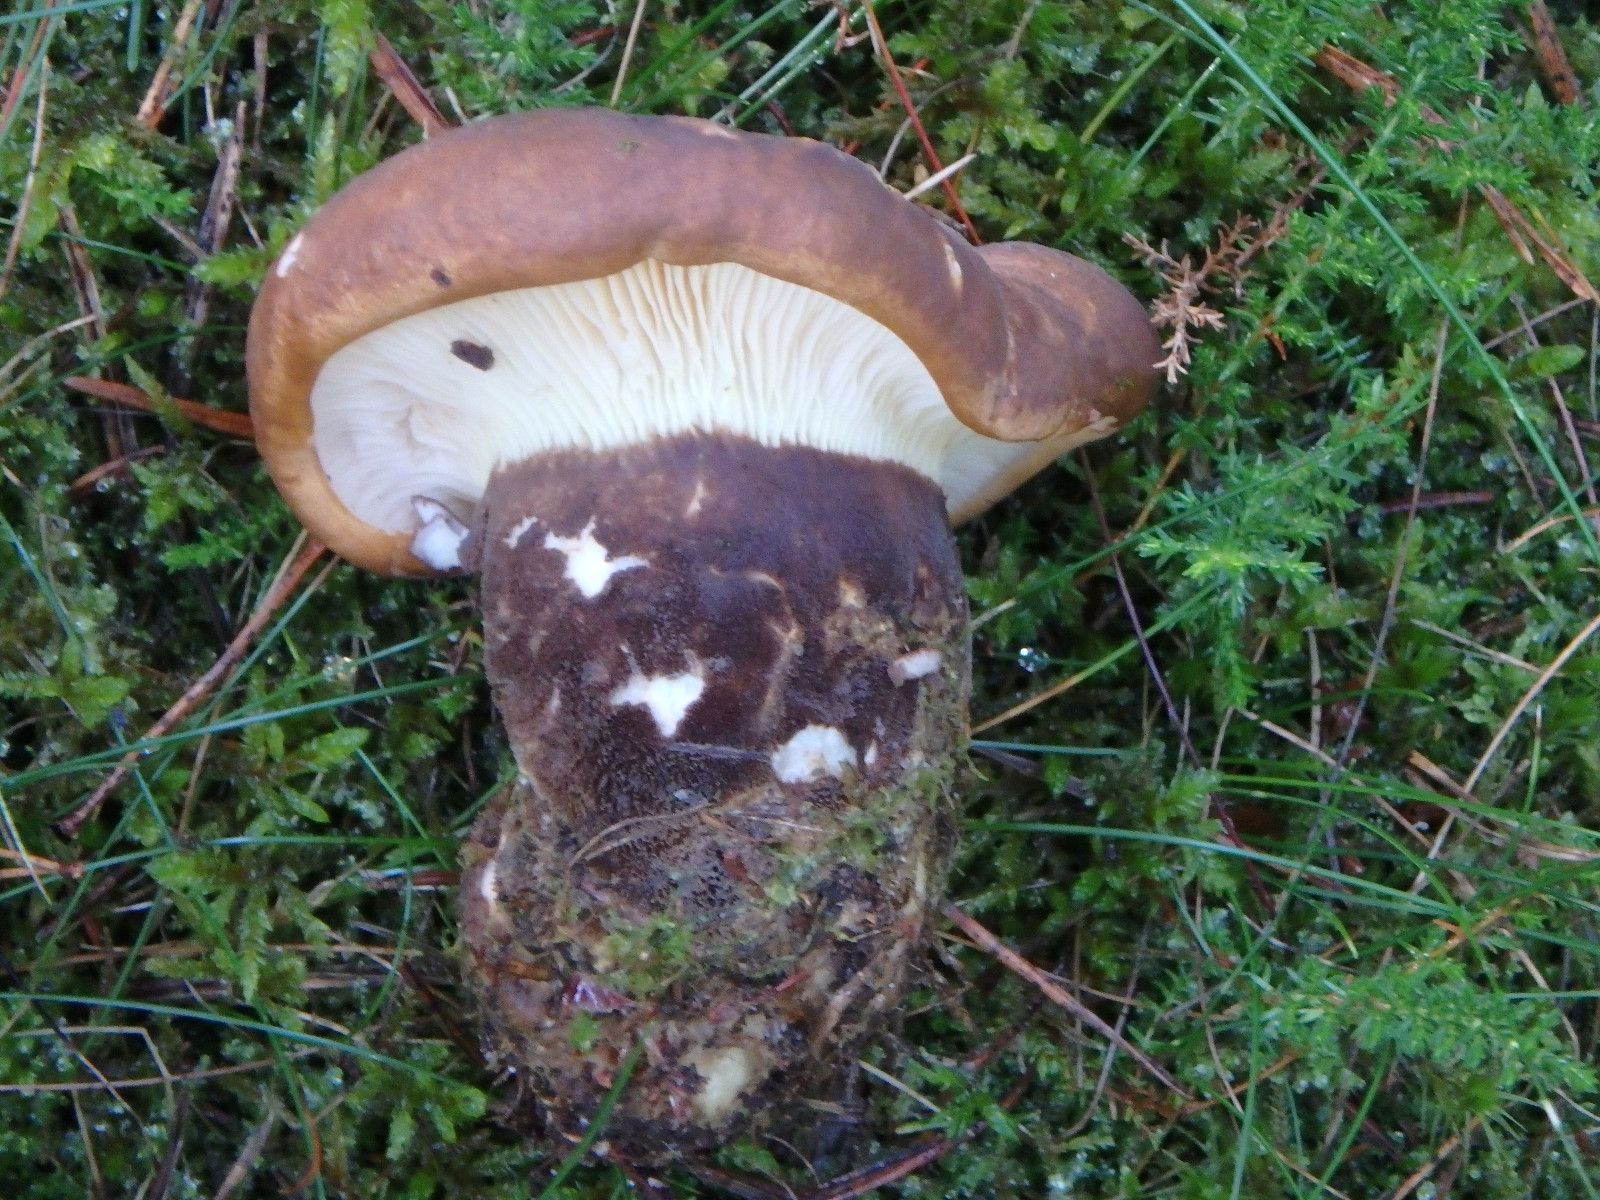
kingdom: Fungi
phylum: Basidiomycota
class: Agaricomycetes
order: Boletales
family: Tapinellaceae
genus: Tapinella
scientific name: Tapinella atrotomentosa
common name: sortfiltet viftesvamp
